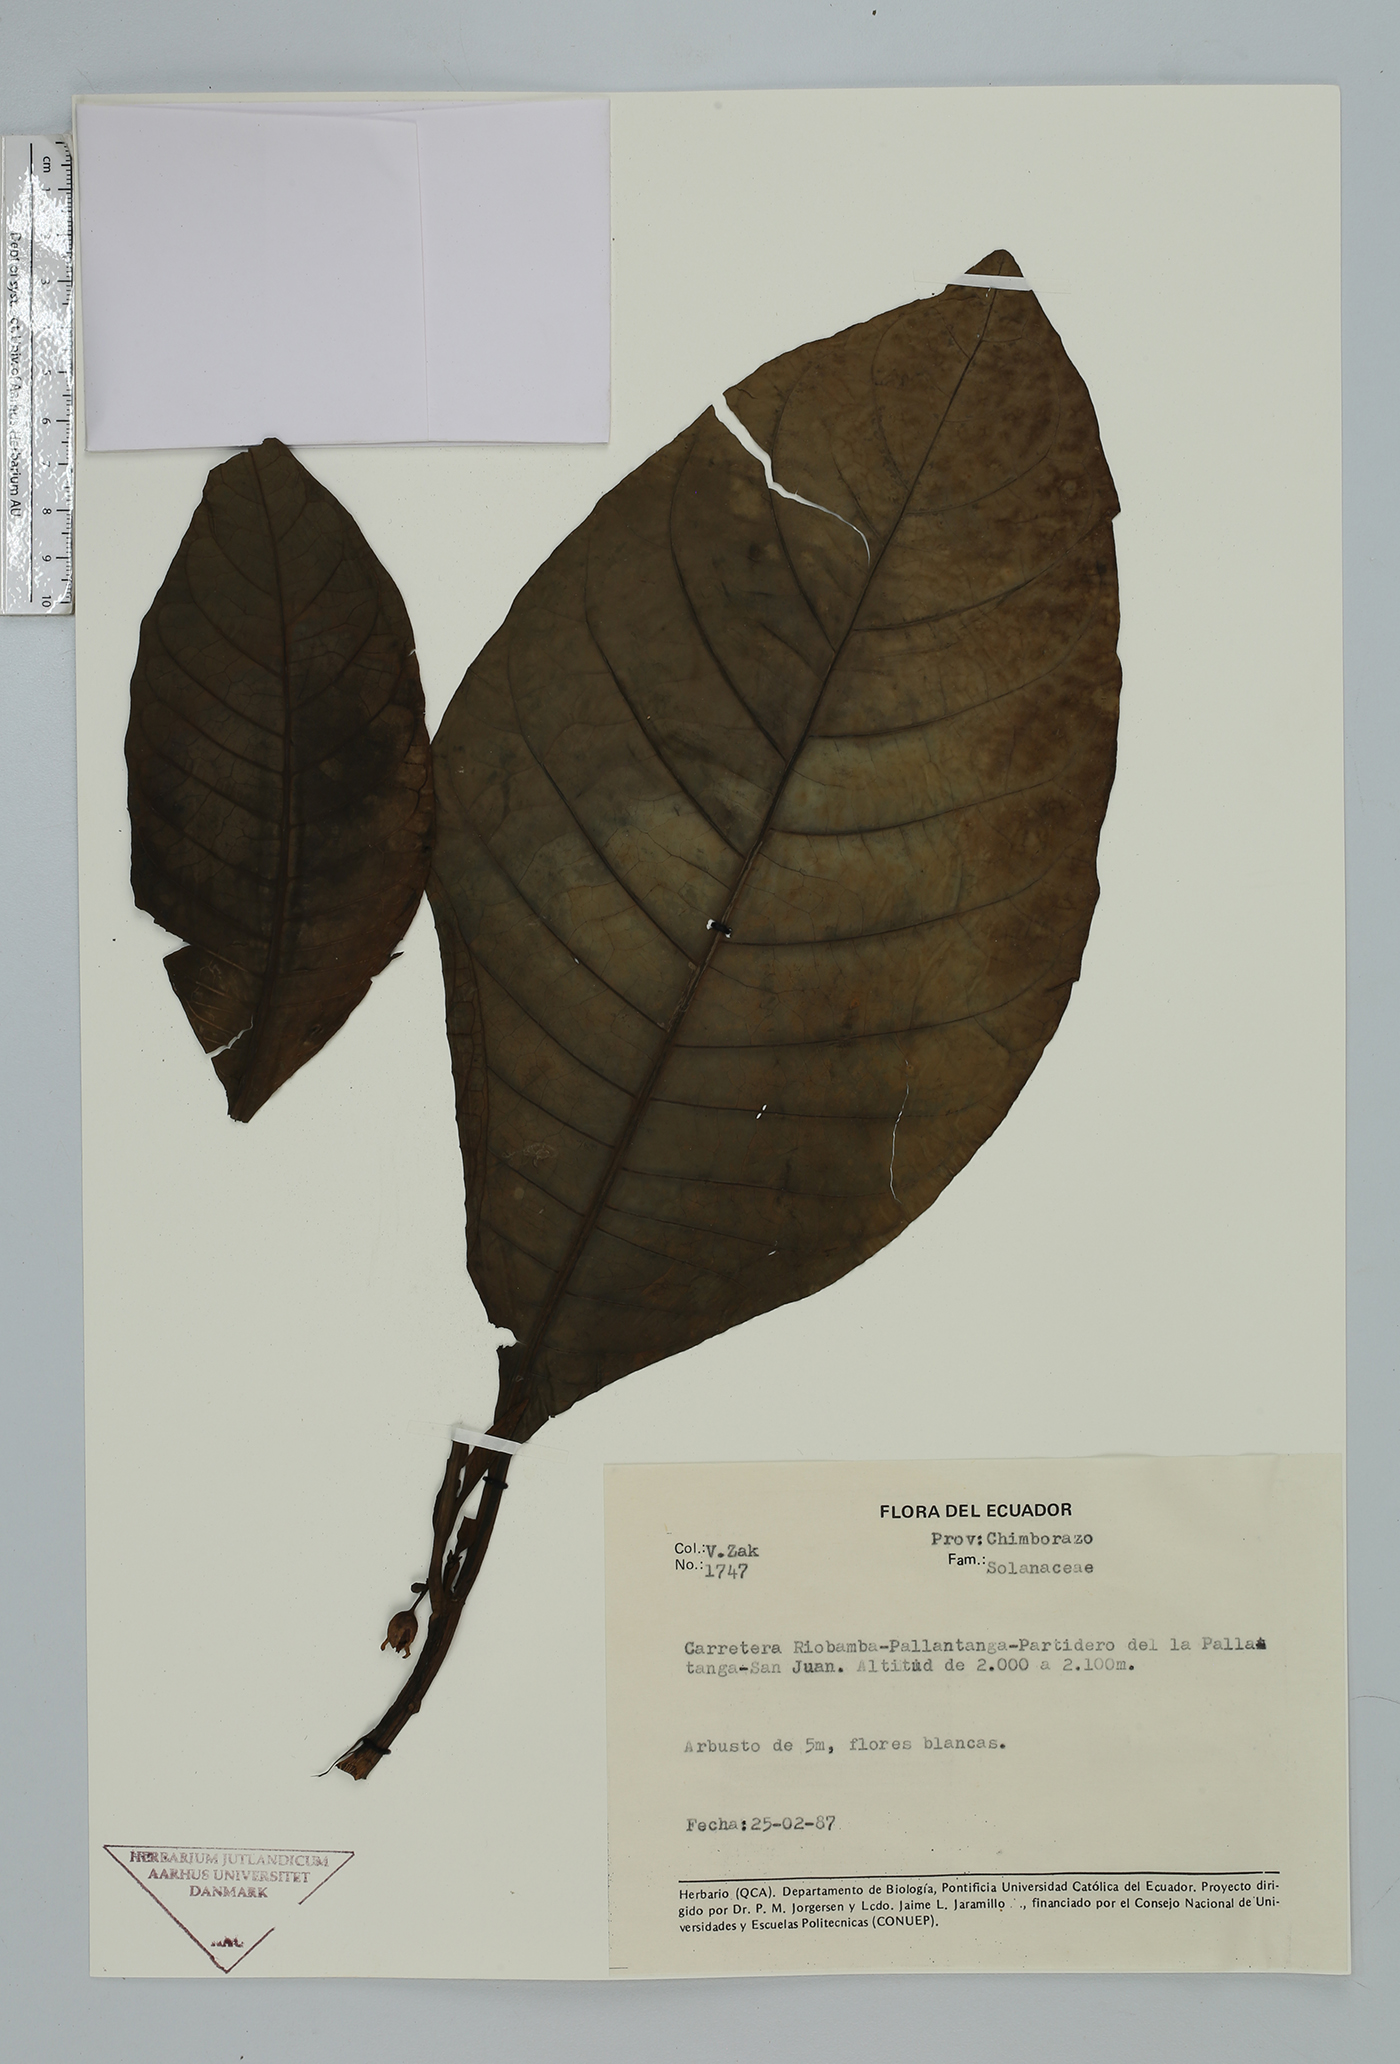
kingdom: Plantae
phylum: Tracheophyta
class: Magnoliopsida
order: Solanales
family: Solanaceae
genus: Solanum
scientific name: Solanum
